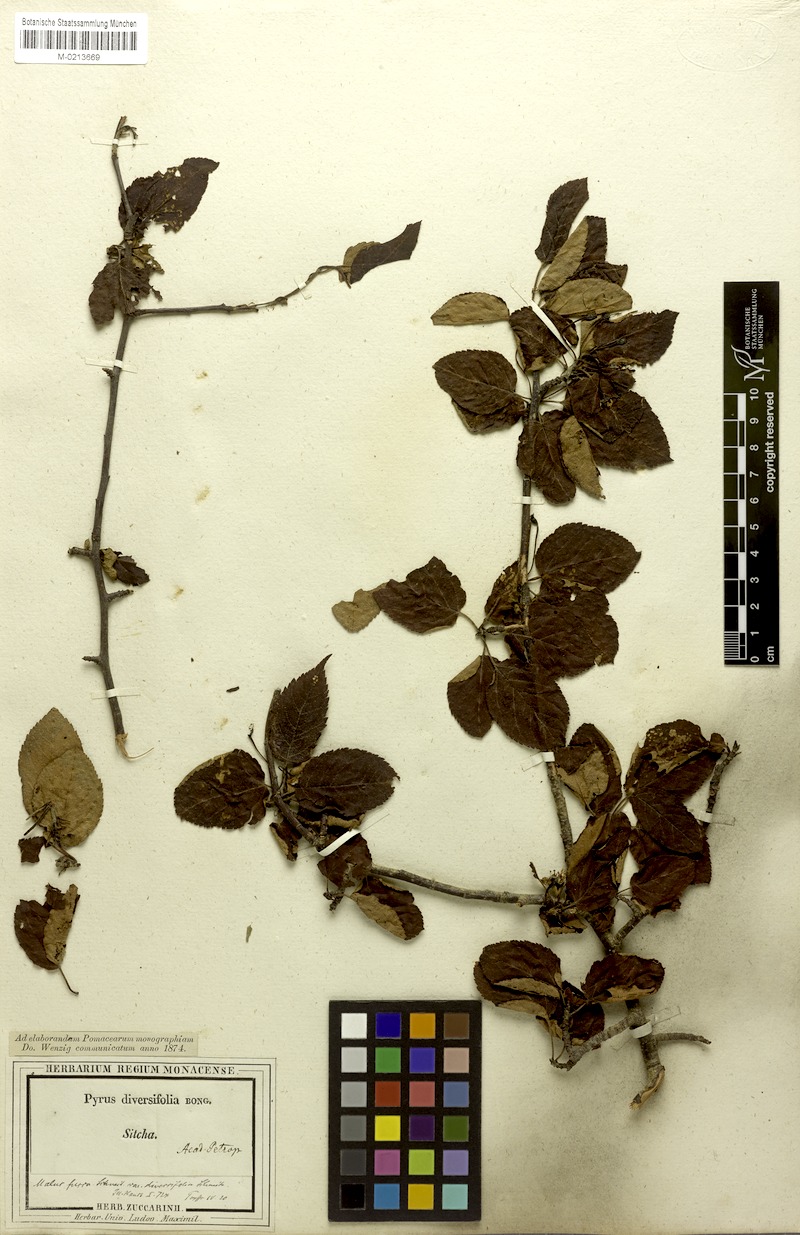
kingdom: Plantae
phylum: Tracheophyta
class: Magnoliopsida
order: Rosales
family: Rosaceae
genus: Malus
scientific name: Malus fusca
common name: Oregon crab apple
